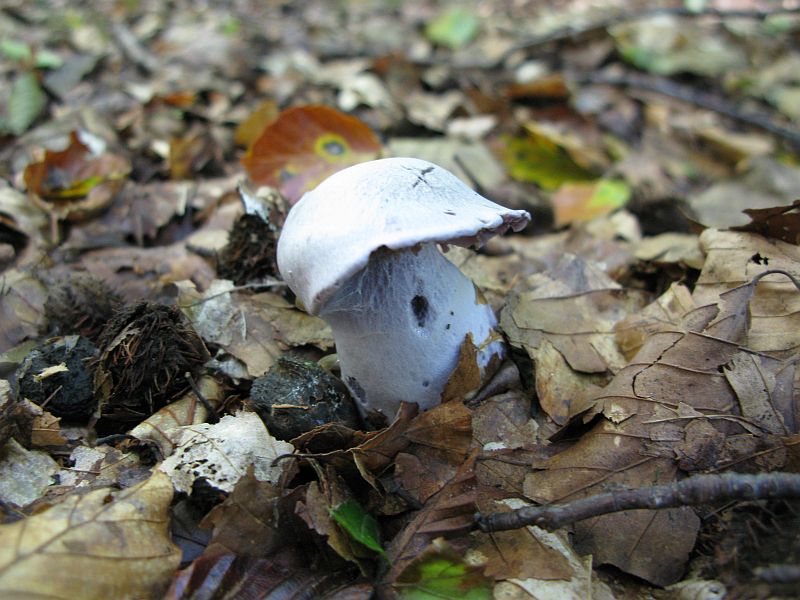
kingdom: Fungi
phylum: Basidiomycota
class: Agaricomycetes
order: Agaricales
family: Cortinariaceae
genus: Cortinarius
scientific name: Cortinarius alboviolaceus
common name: lysviolet slørhat
